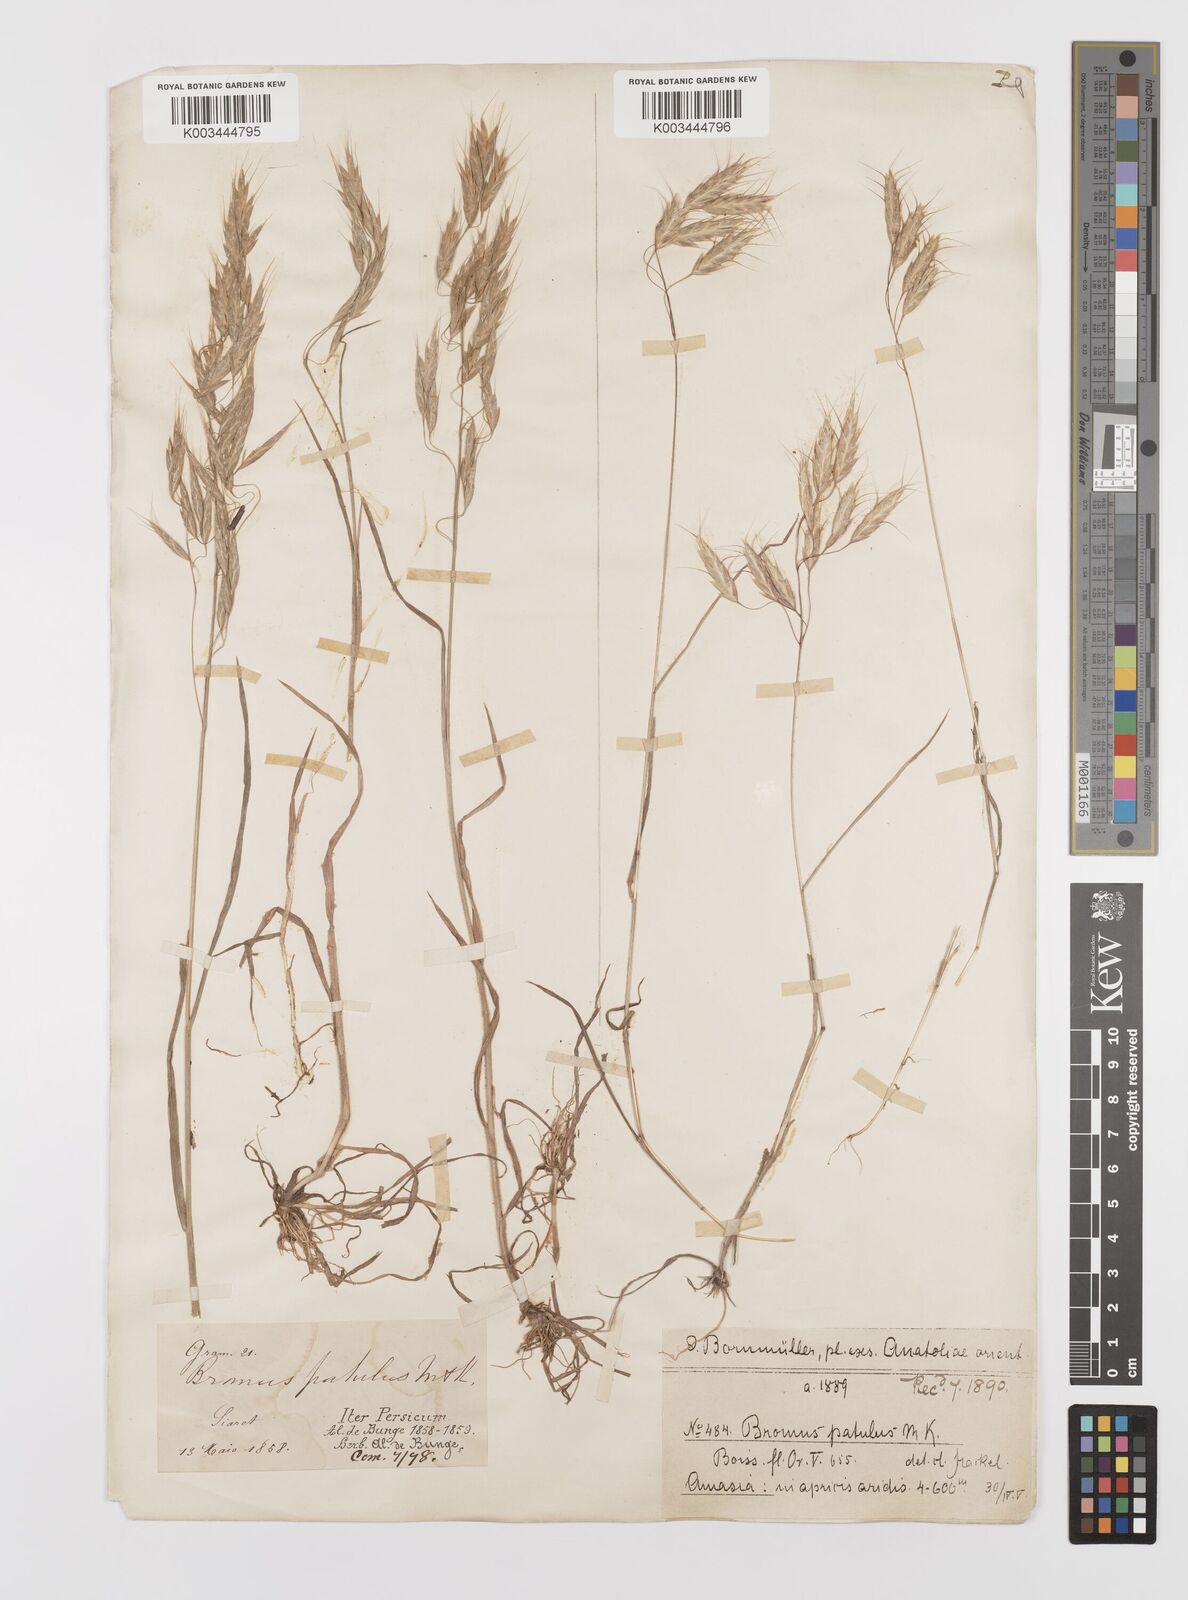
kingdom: Plantae
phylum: Tracheophyta
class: Liliopsida
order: Poales
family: Poaceae
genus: Bromus
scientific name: Bromus squarrosus
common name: Corn brome
